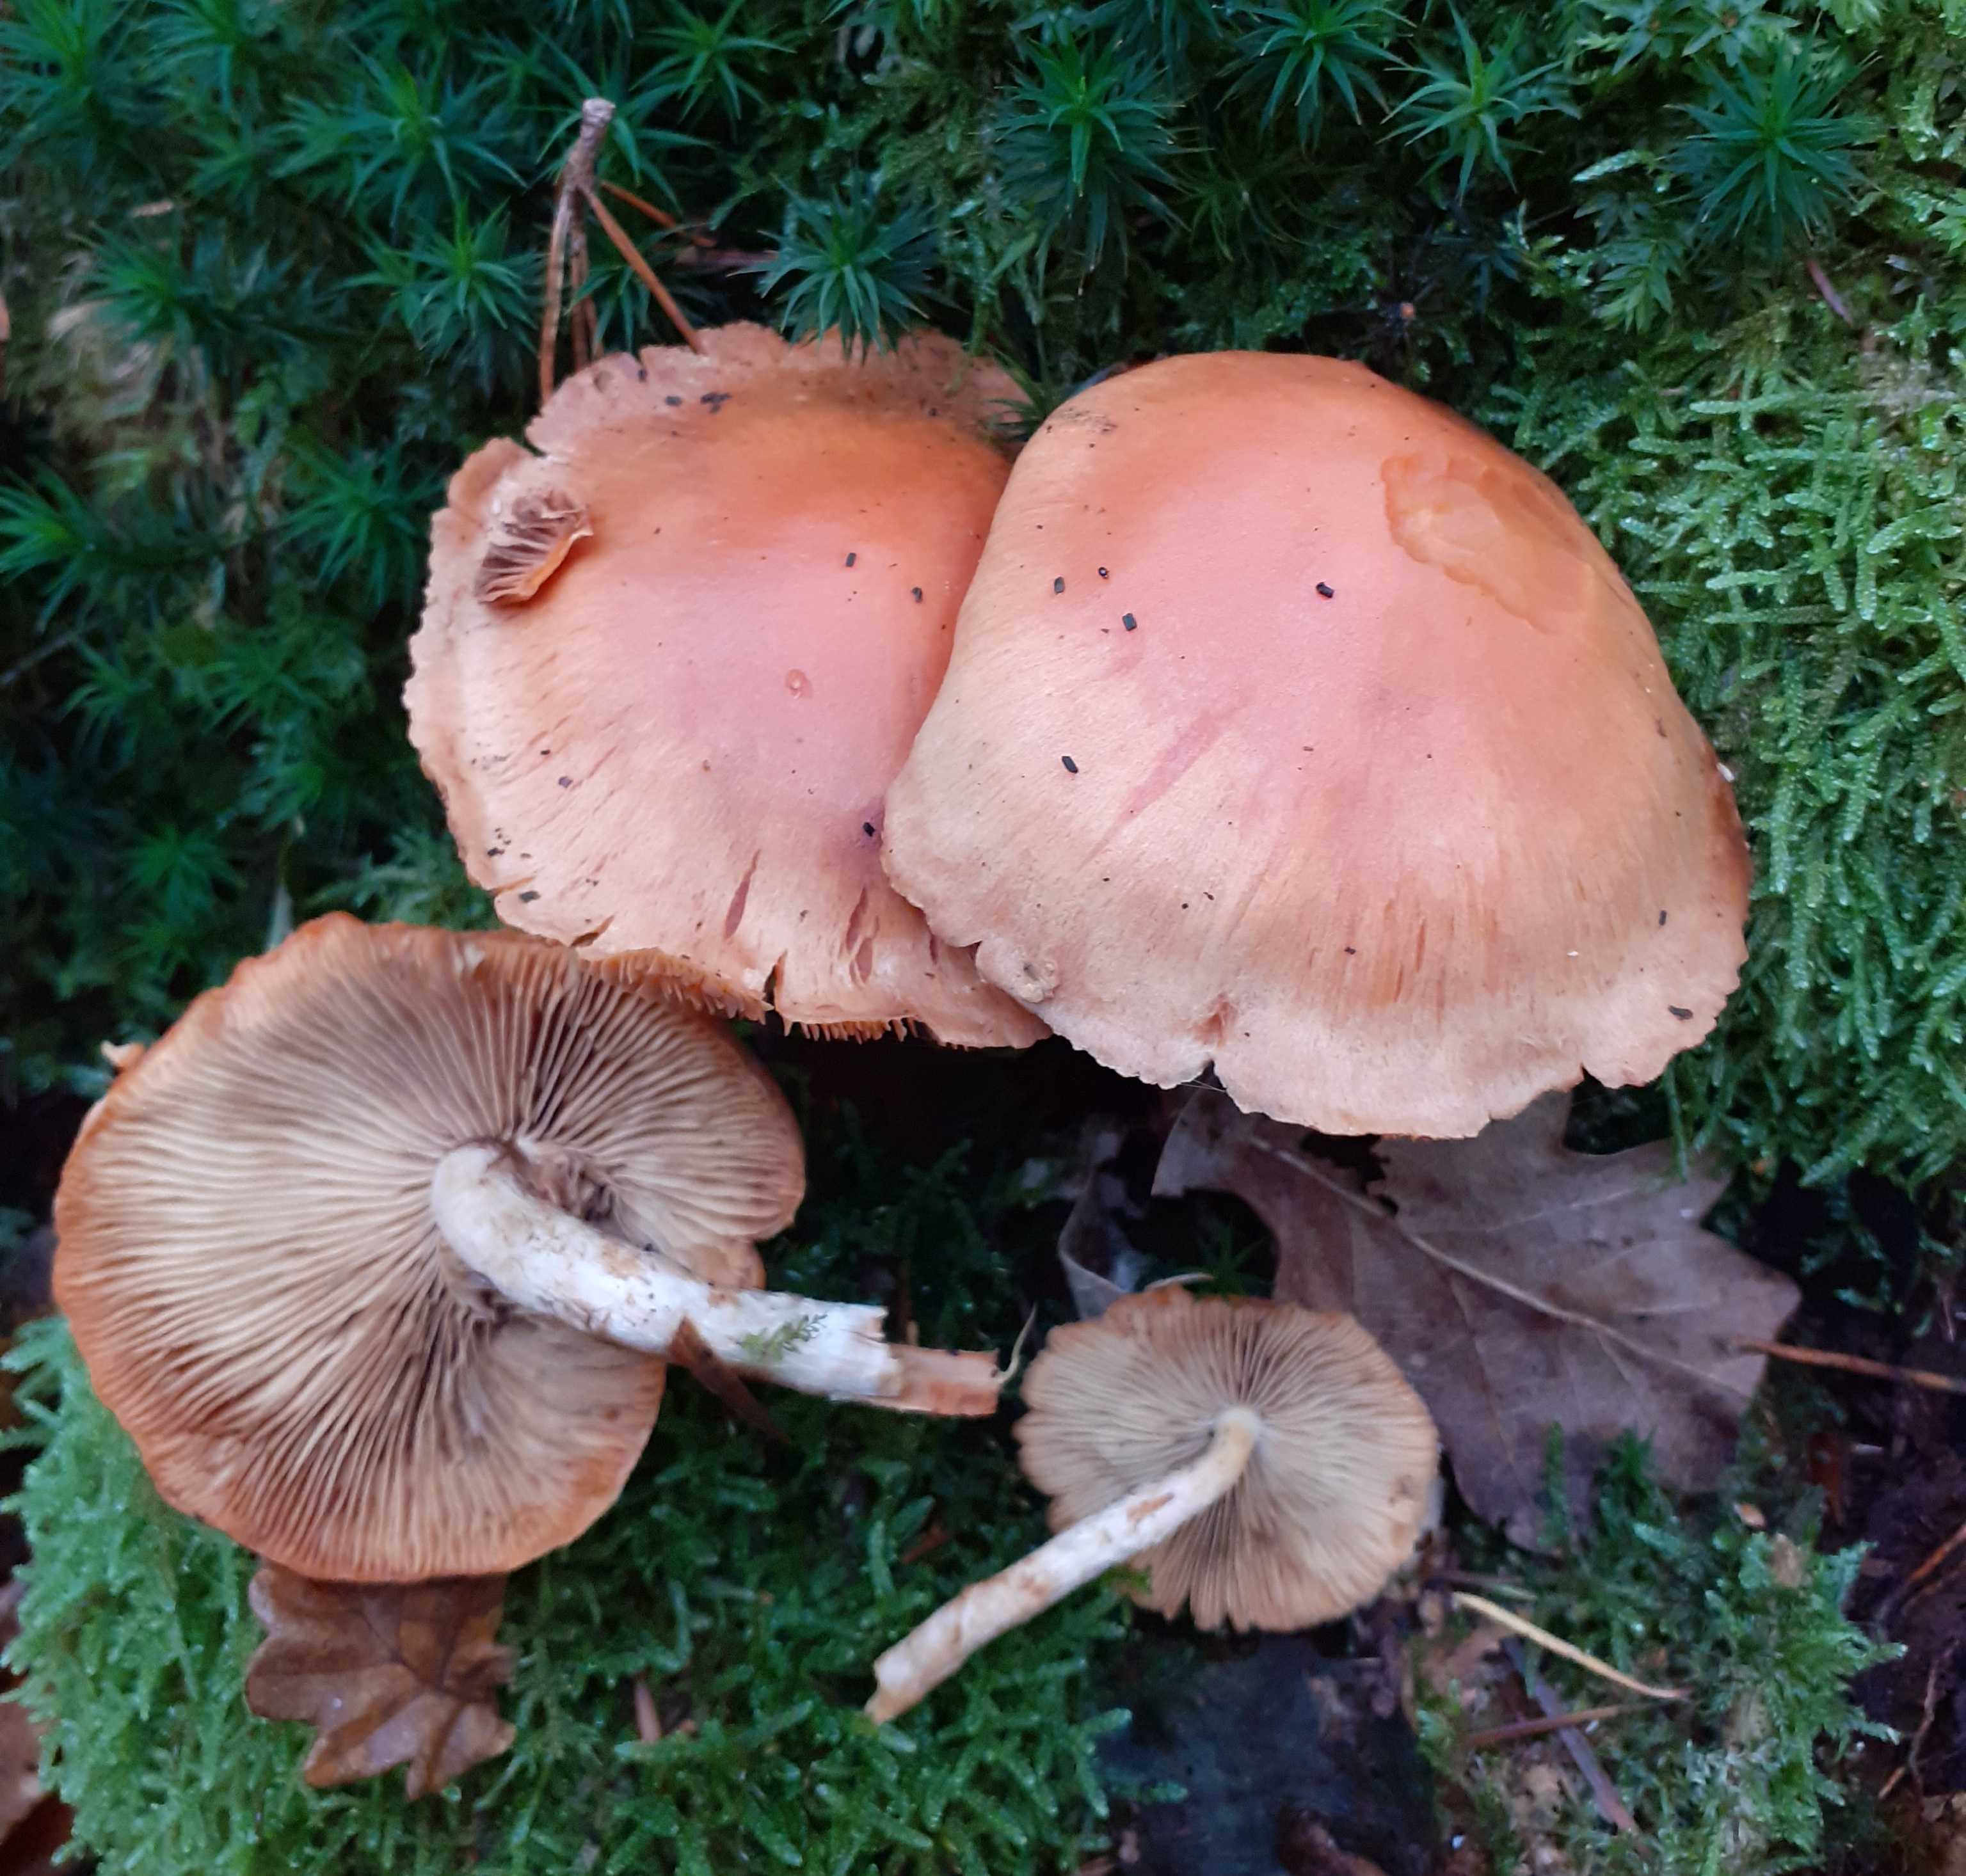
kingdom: Fungi
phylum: Basidiomycota
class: Agaricomycetes
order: Agaricales
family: Strophariaceae
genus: Pyrrhulomyces
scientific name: Pyrrhulomyces astragalinus
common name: safran-skælhat
